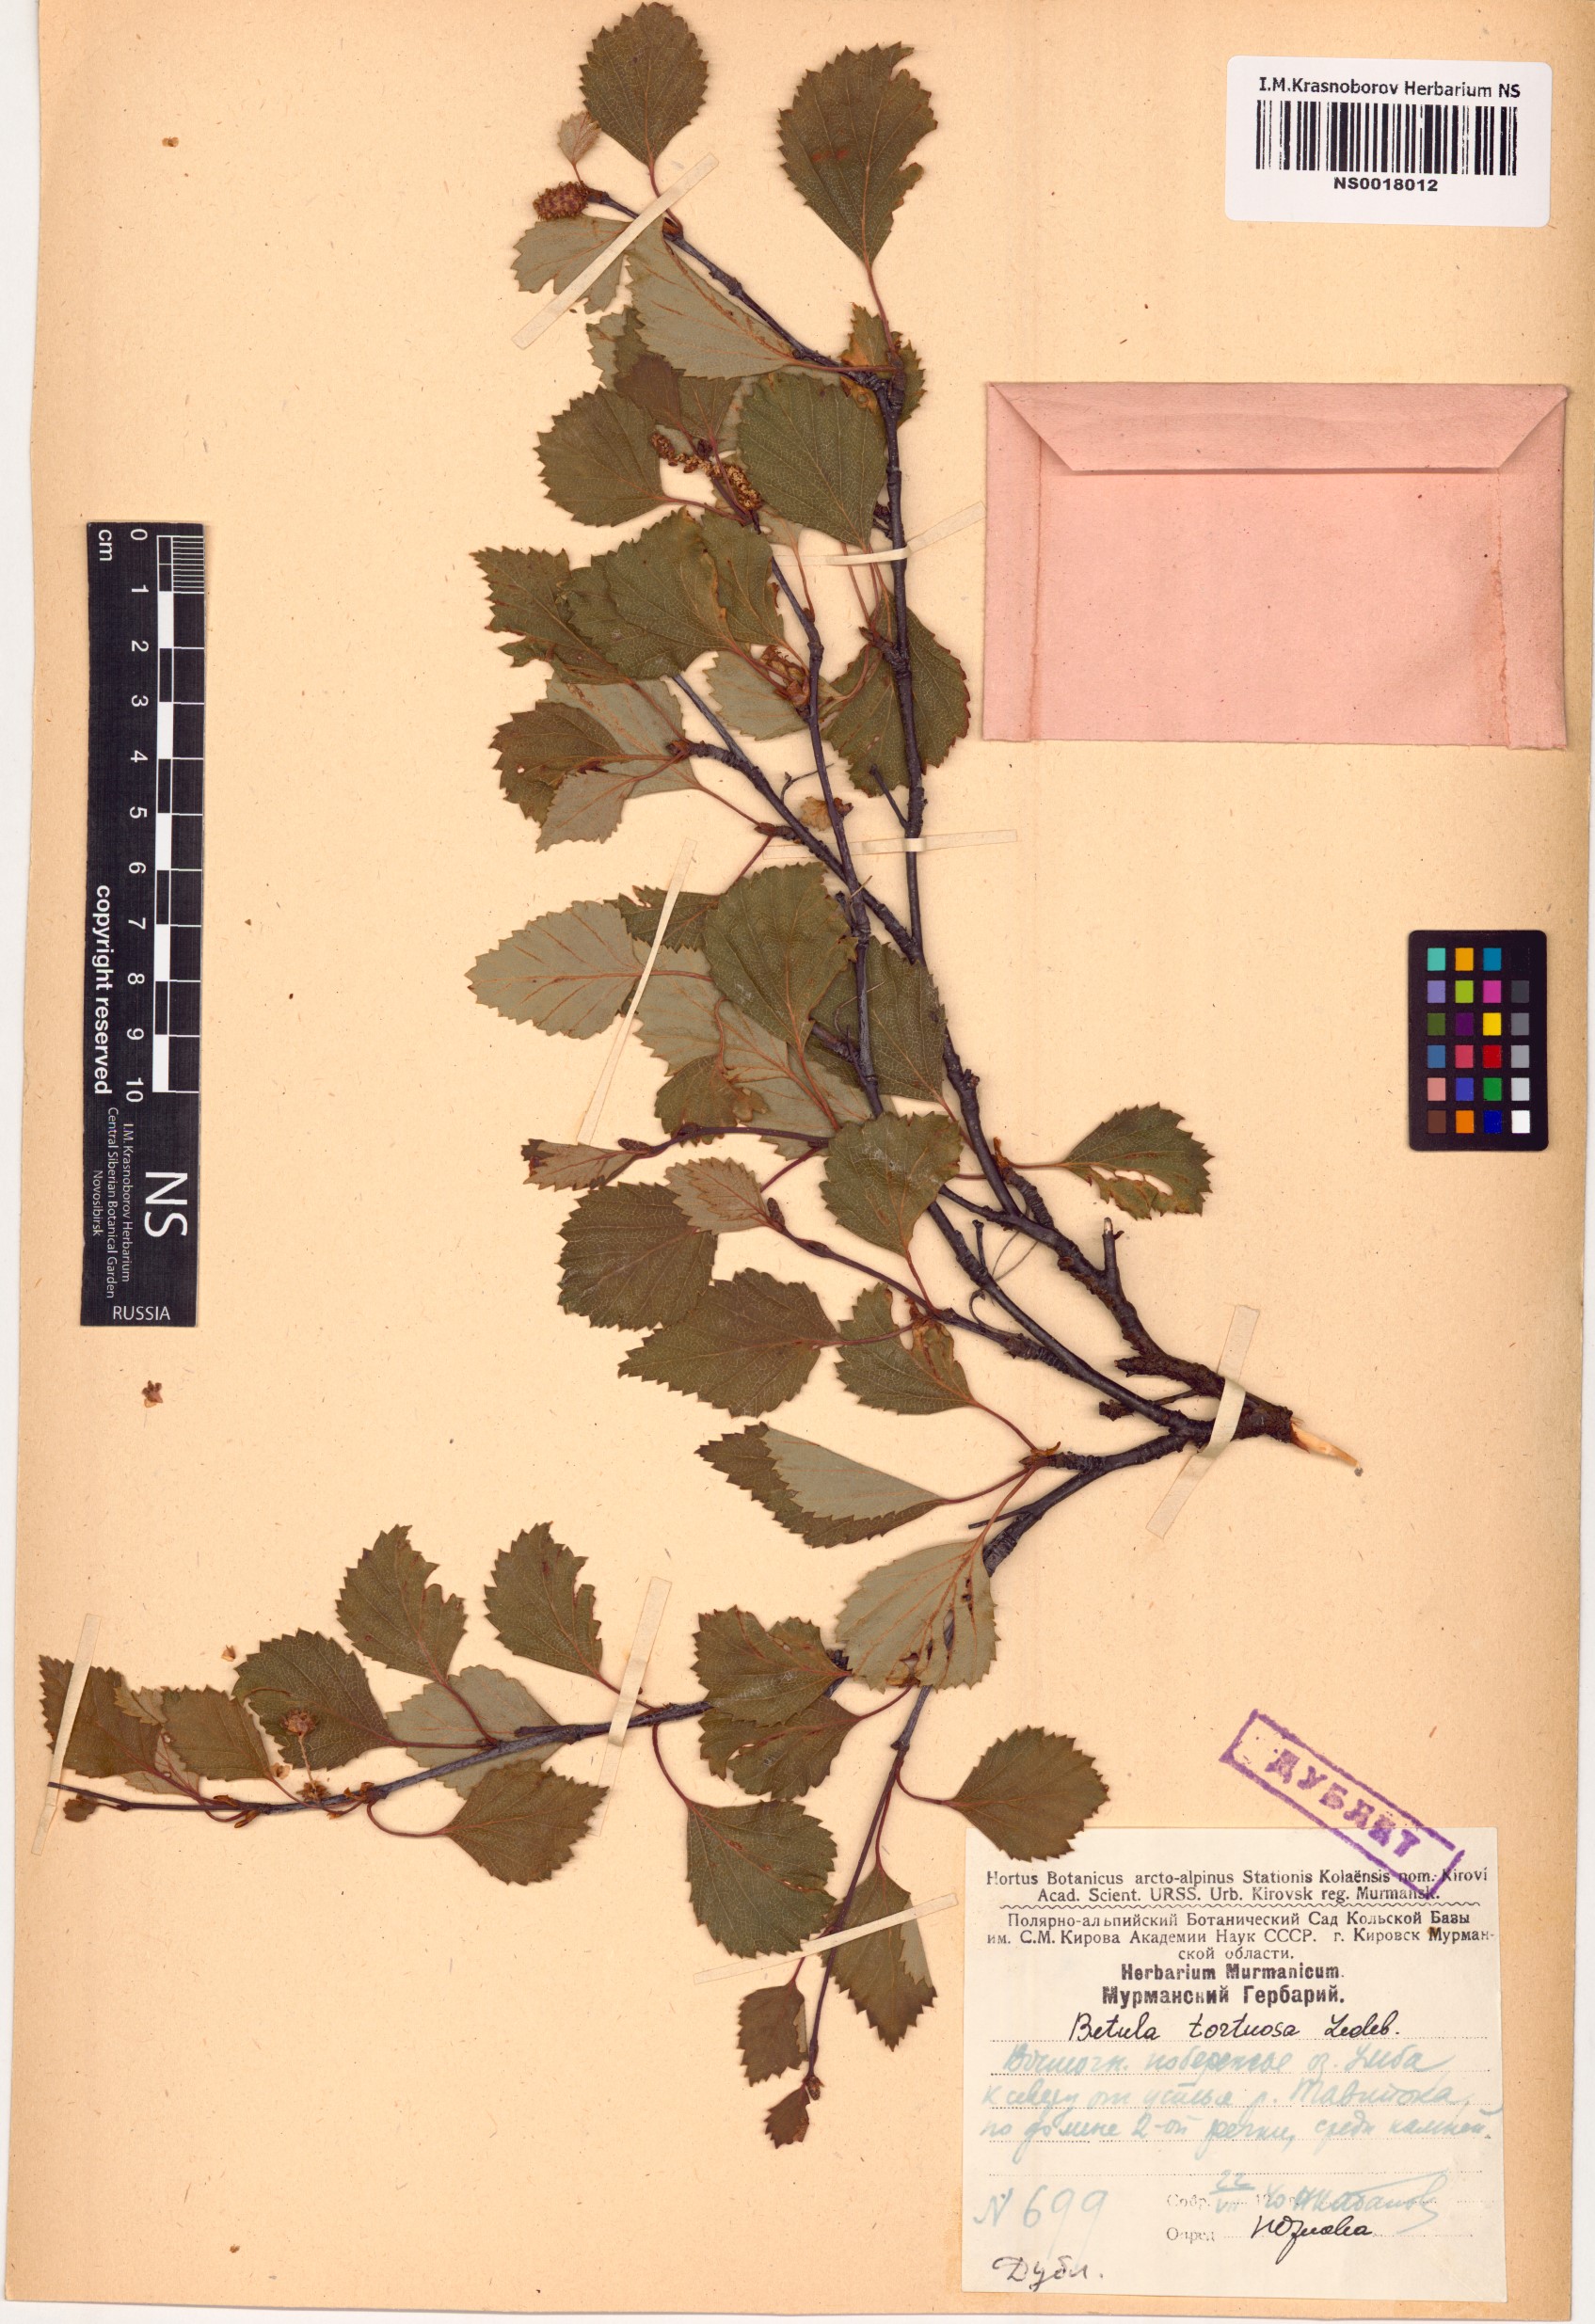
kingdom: Plantae
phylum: Tracheophyta
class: Magnoliopsida
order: Fagales
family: Betulaceae
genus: Betula
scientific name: Betula pubescens
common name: Downy birch
